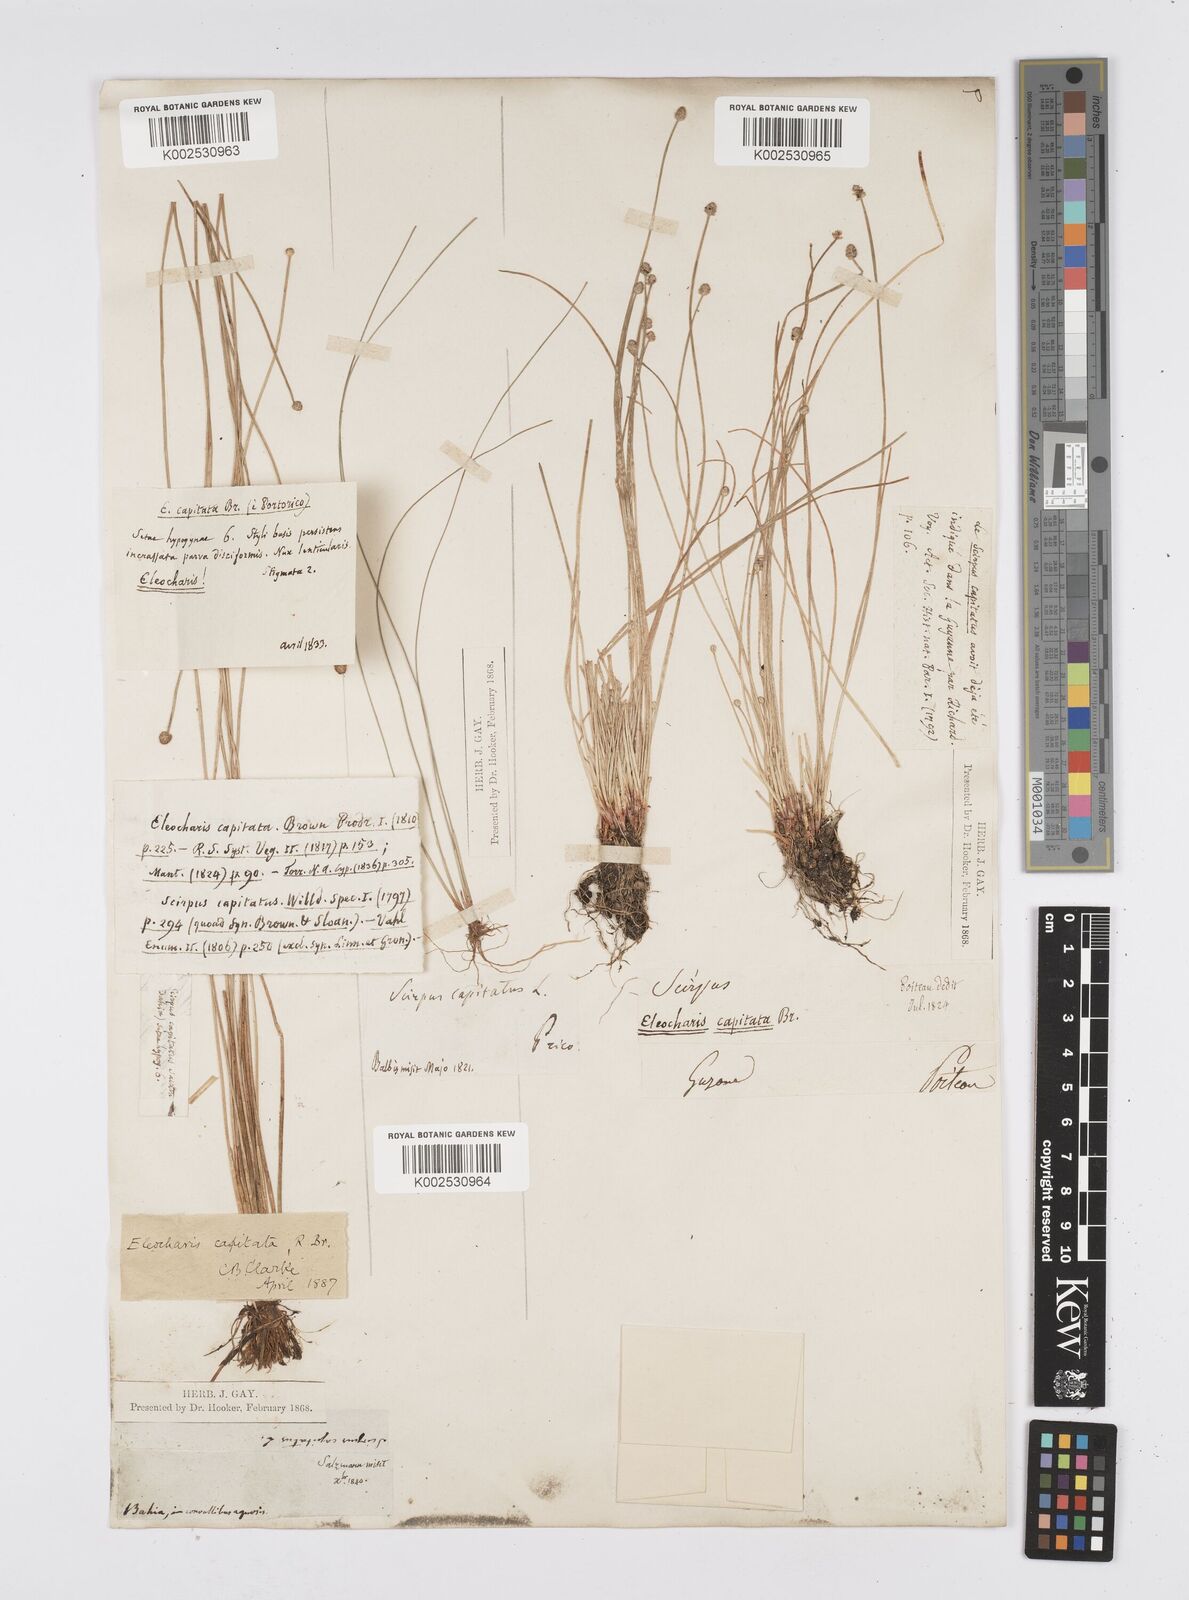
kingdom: Plantae
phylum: Tracheophyta
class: Liliopsida
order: Poales
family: Cyperaceae
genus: Eleocharis
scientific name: Eleocharis geniculata
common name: Canada spikesedge
